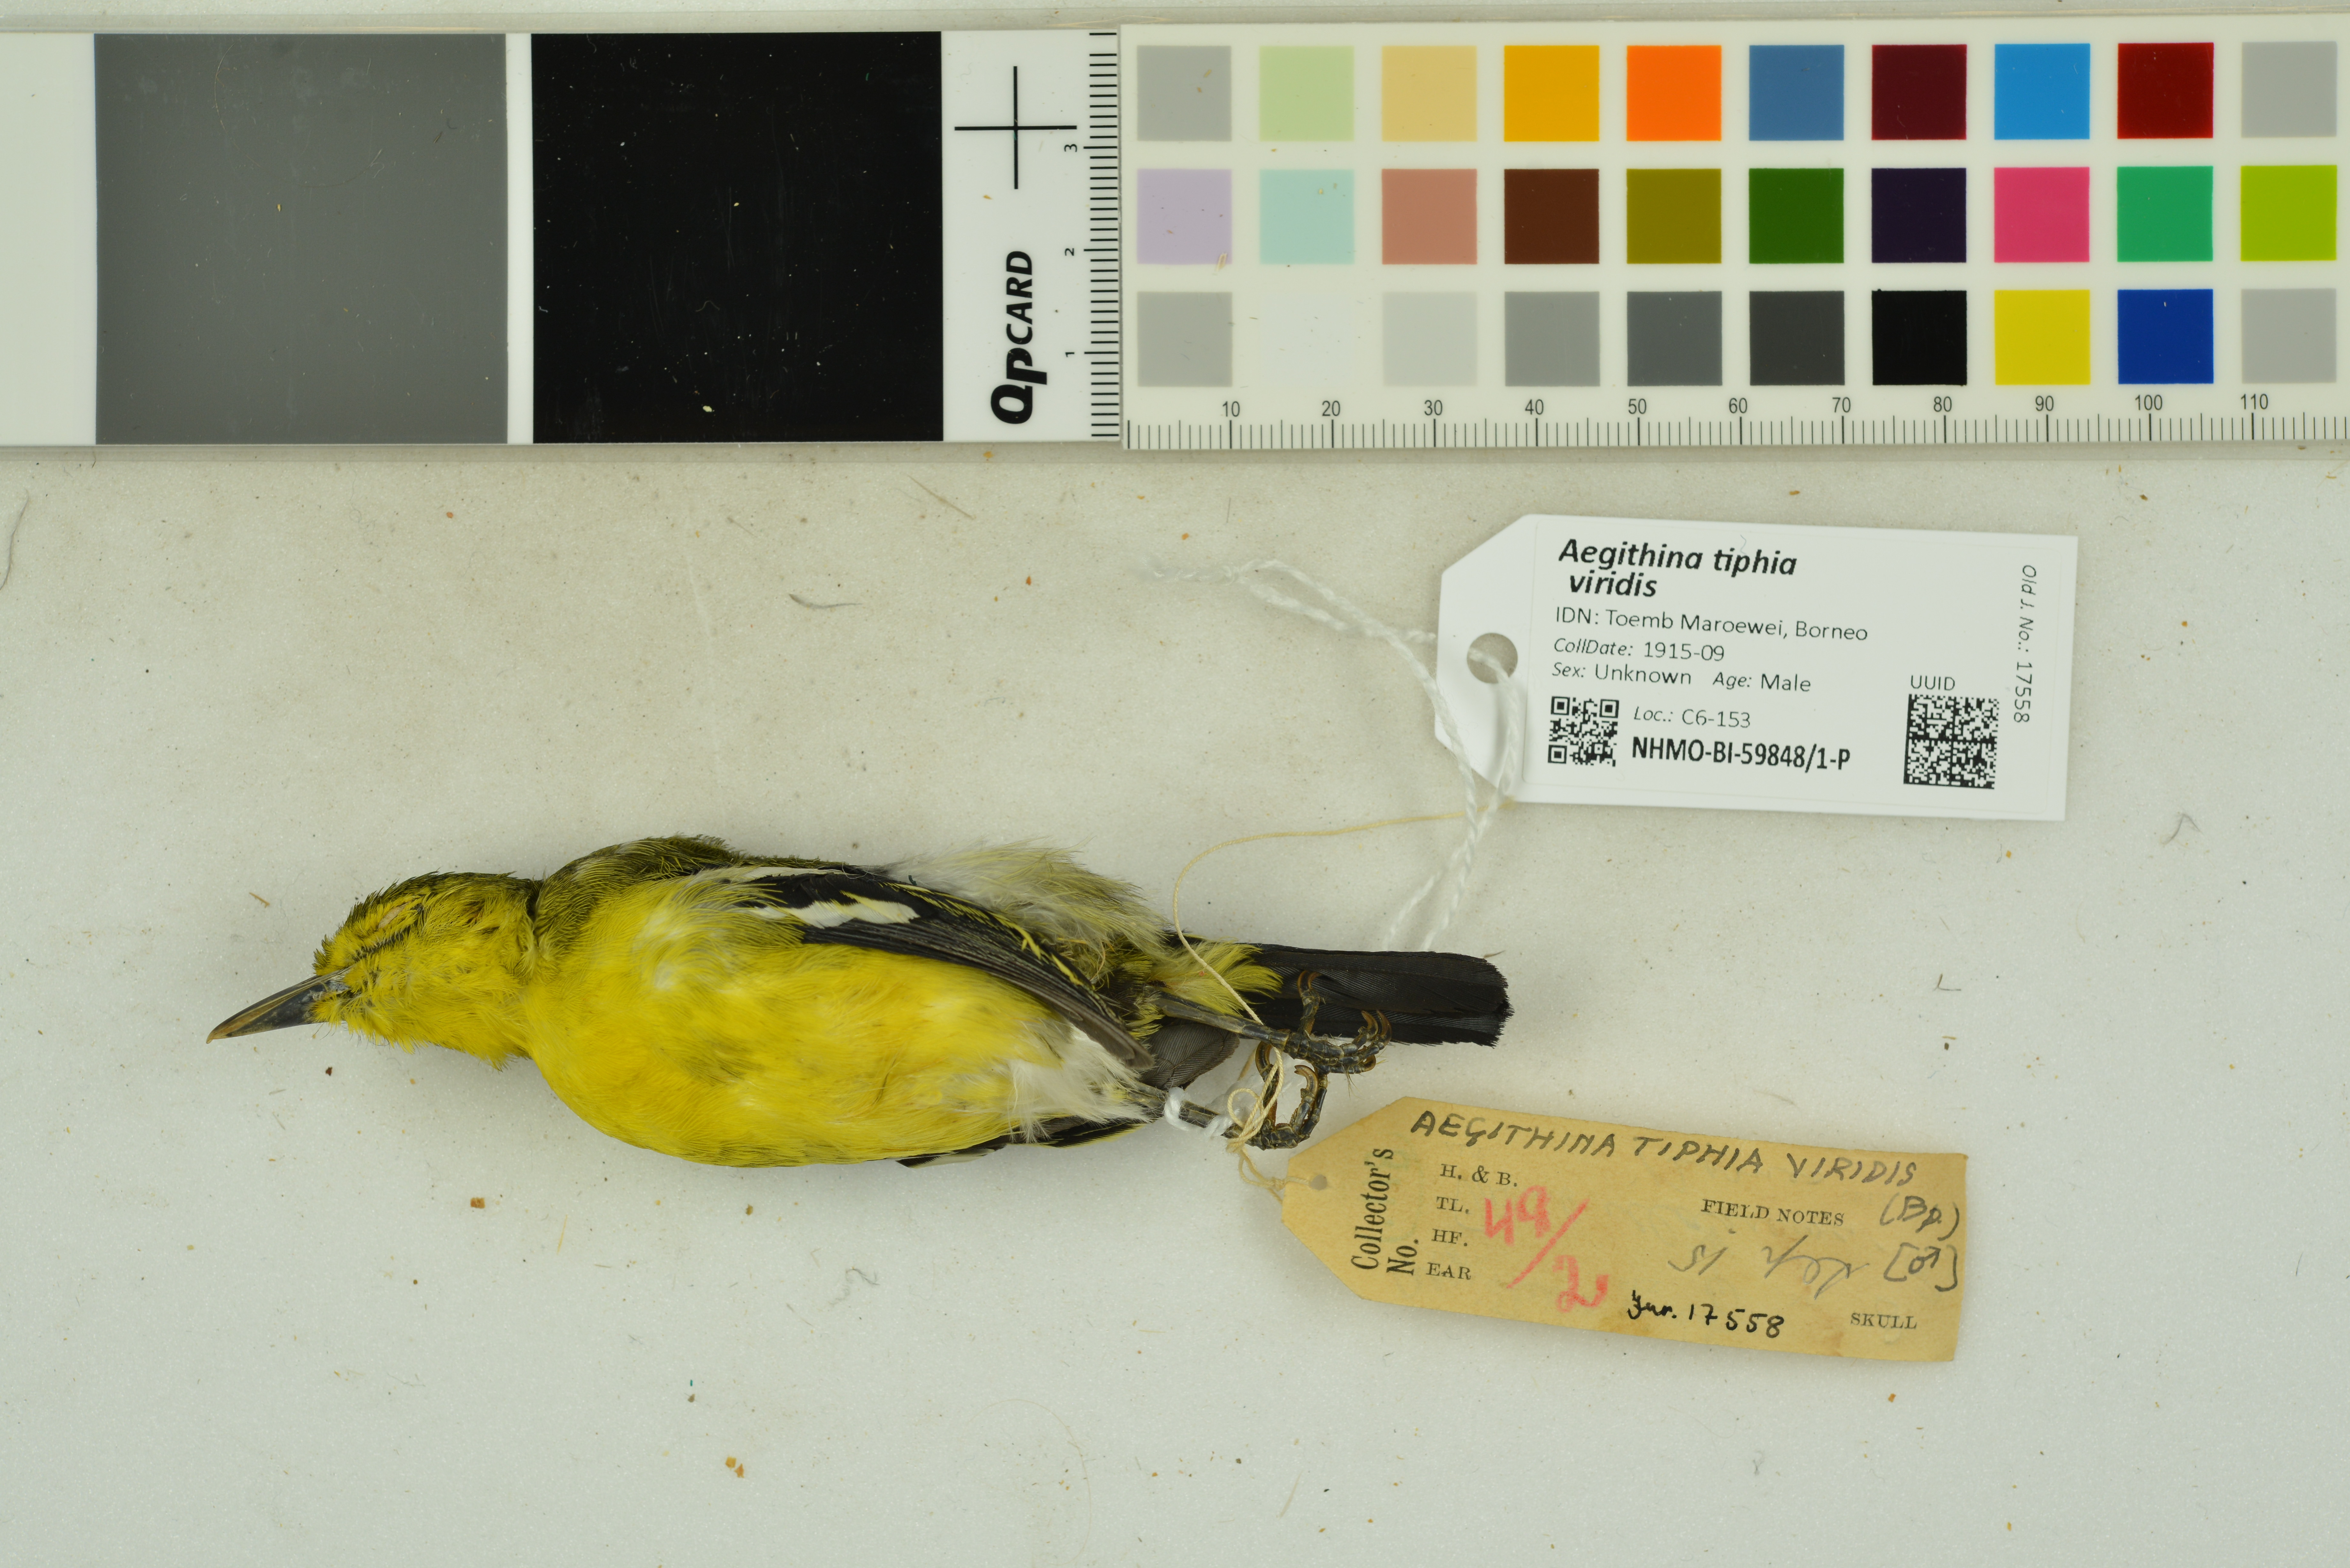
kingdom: Animalia
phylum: Chordata
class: Aves
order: Passeriformes
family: Aegithinidae
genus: Aegithina
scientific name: Aegithina tiphia
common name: Common iora
